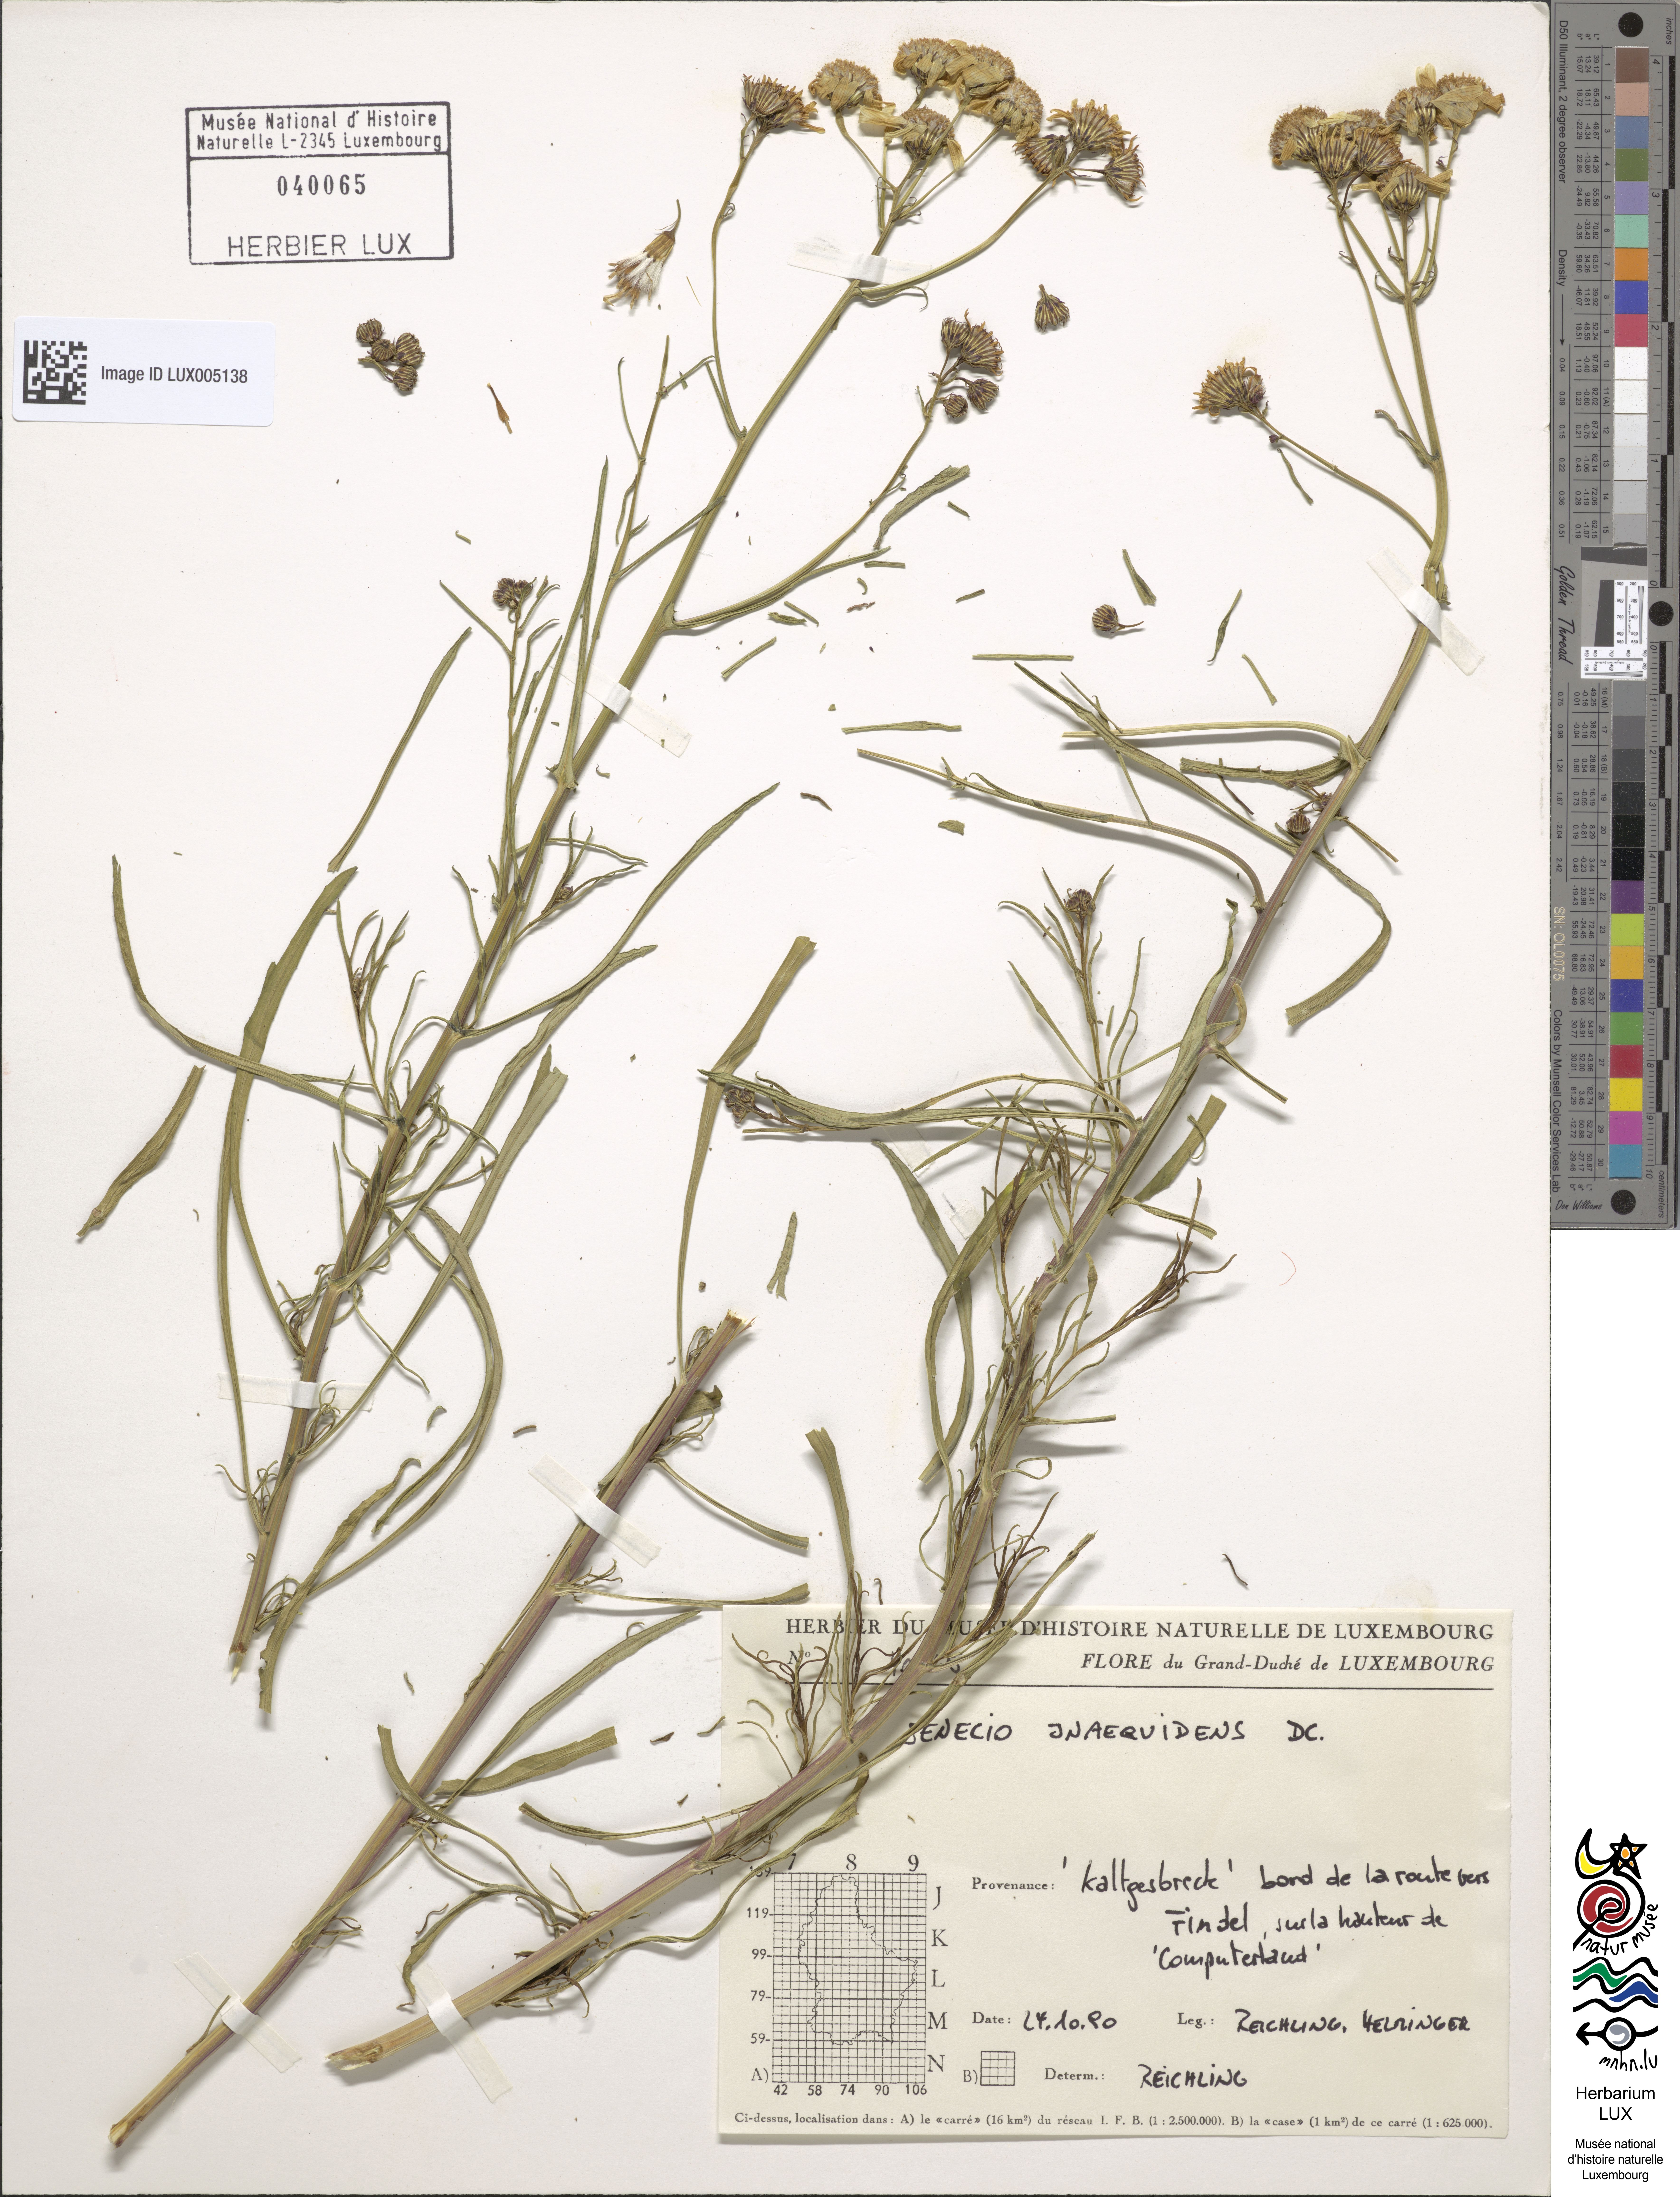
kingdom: Plantae
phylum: Tracheophyta
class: Magnoliopsida
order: Asterales
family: Asteraceae
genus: Senecio
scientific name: Senecio inaequidens
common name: Narrow-leaved ragwort
